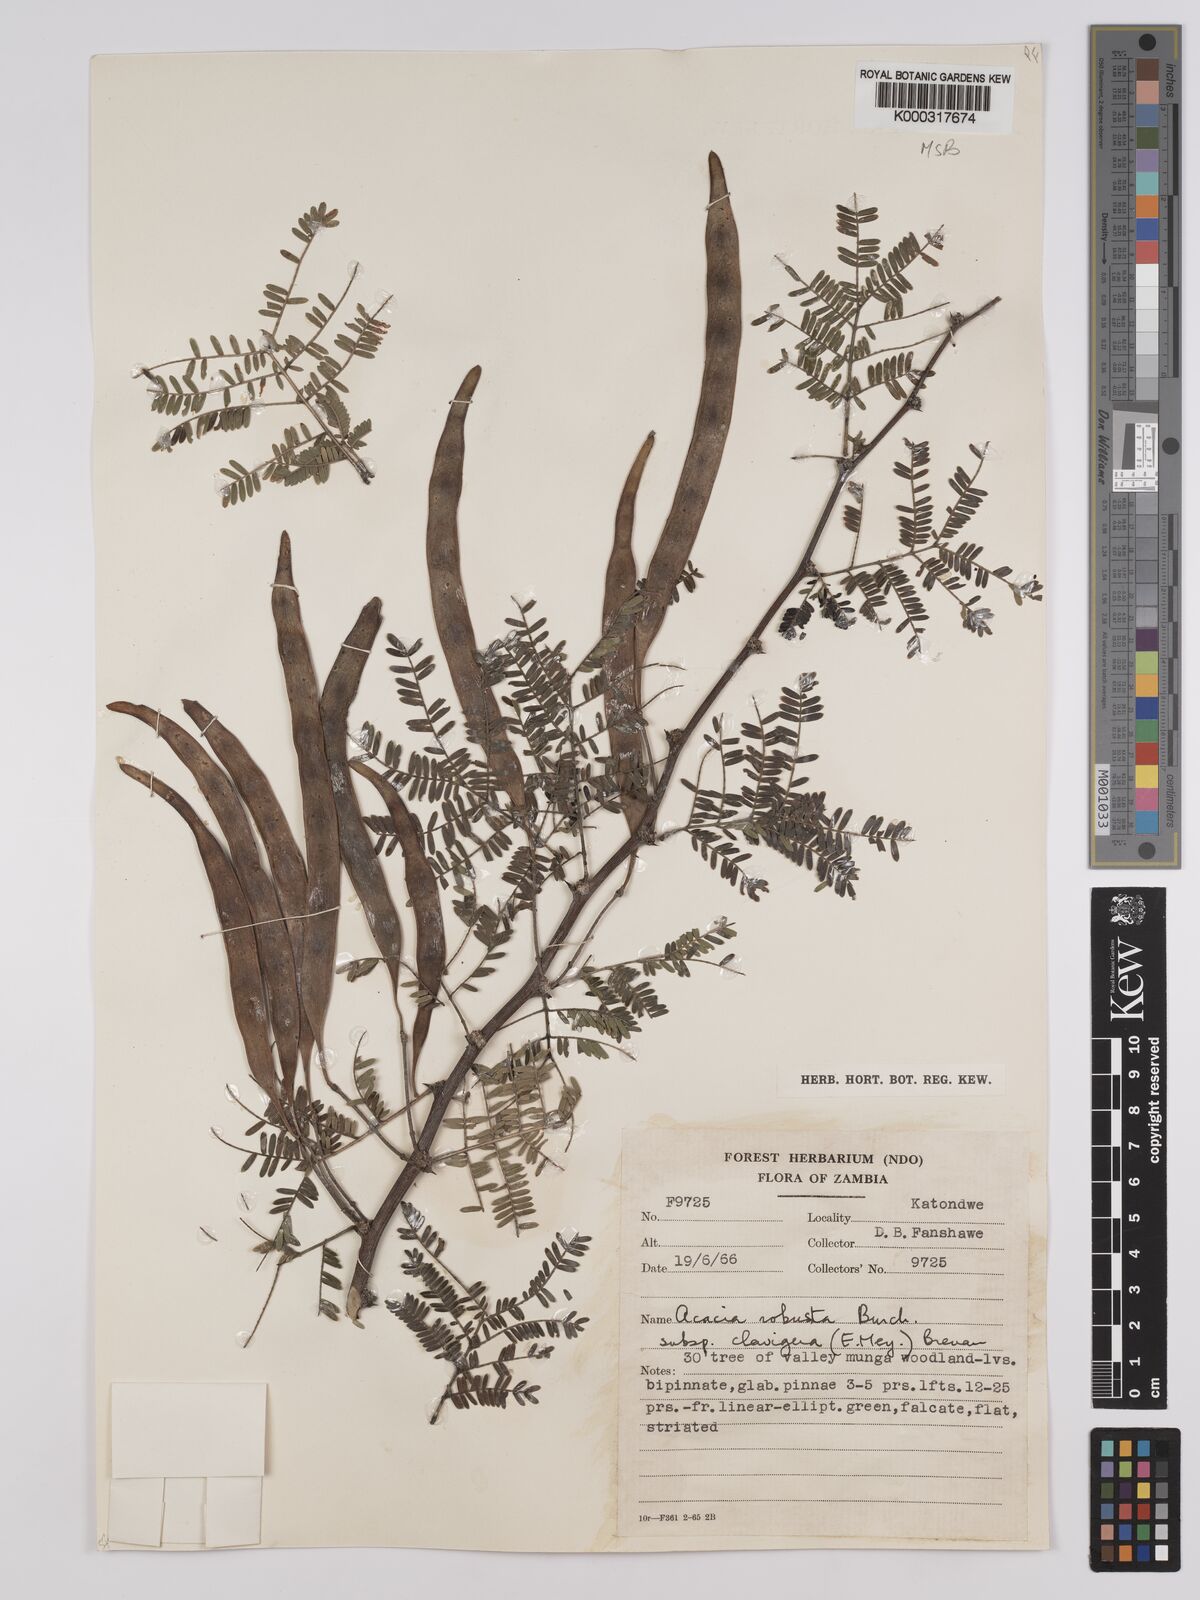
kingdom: Plantae
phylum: Tracheophyta
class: Magnoliopsida
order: Fabales
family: Fabaceae
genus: Vachellia
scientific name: Vachellia robusta
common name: Ankle thorn
